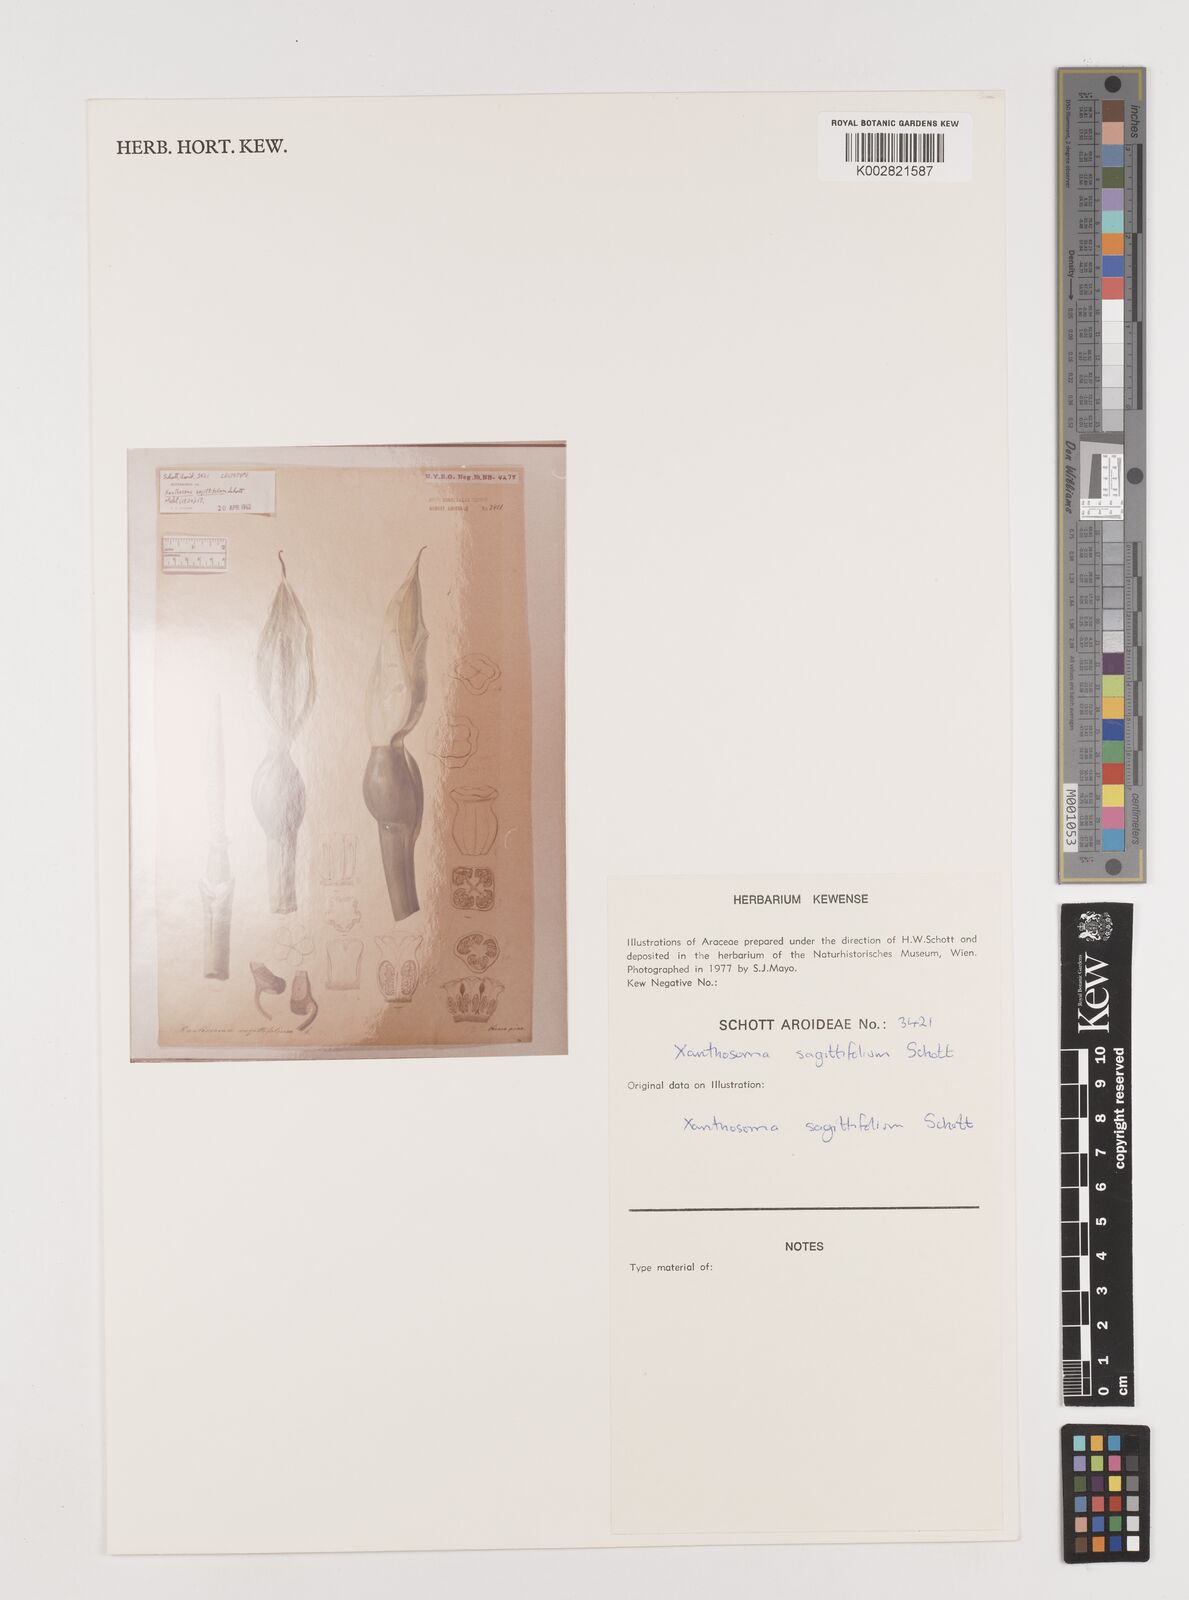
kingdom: Plantae
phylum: Tracheophyta
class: Liliopsida
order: Alismatales
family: Araceae
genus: Xanthosoma
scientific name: Xanthosoma sagittifolium
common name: Arrowleaf elephant's ear
